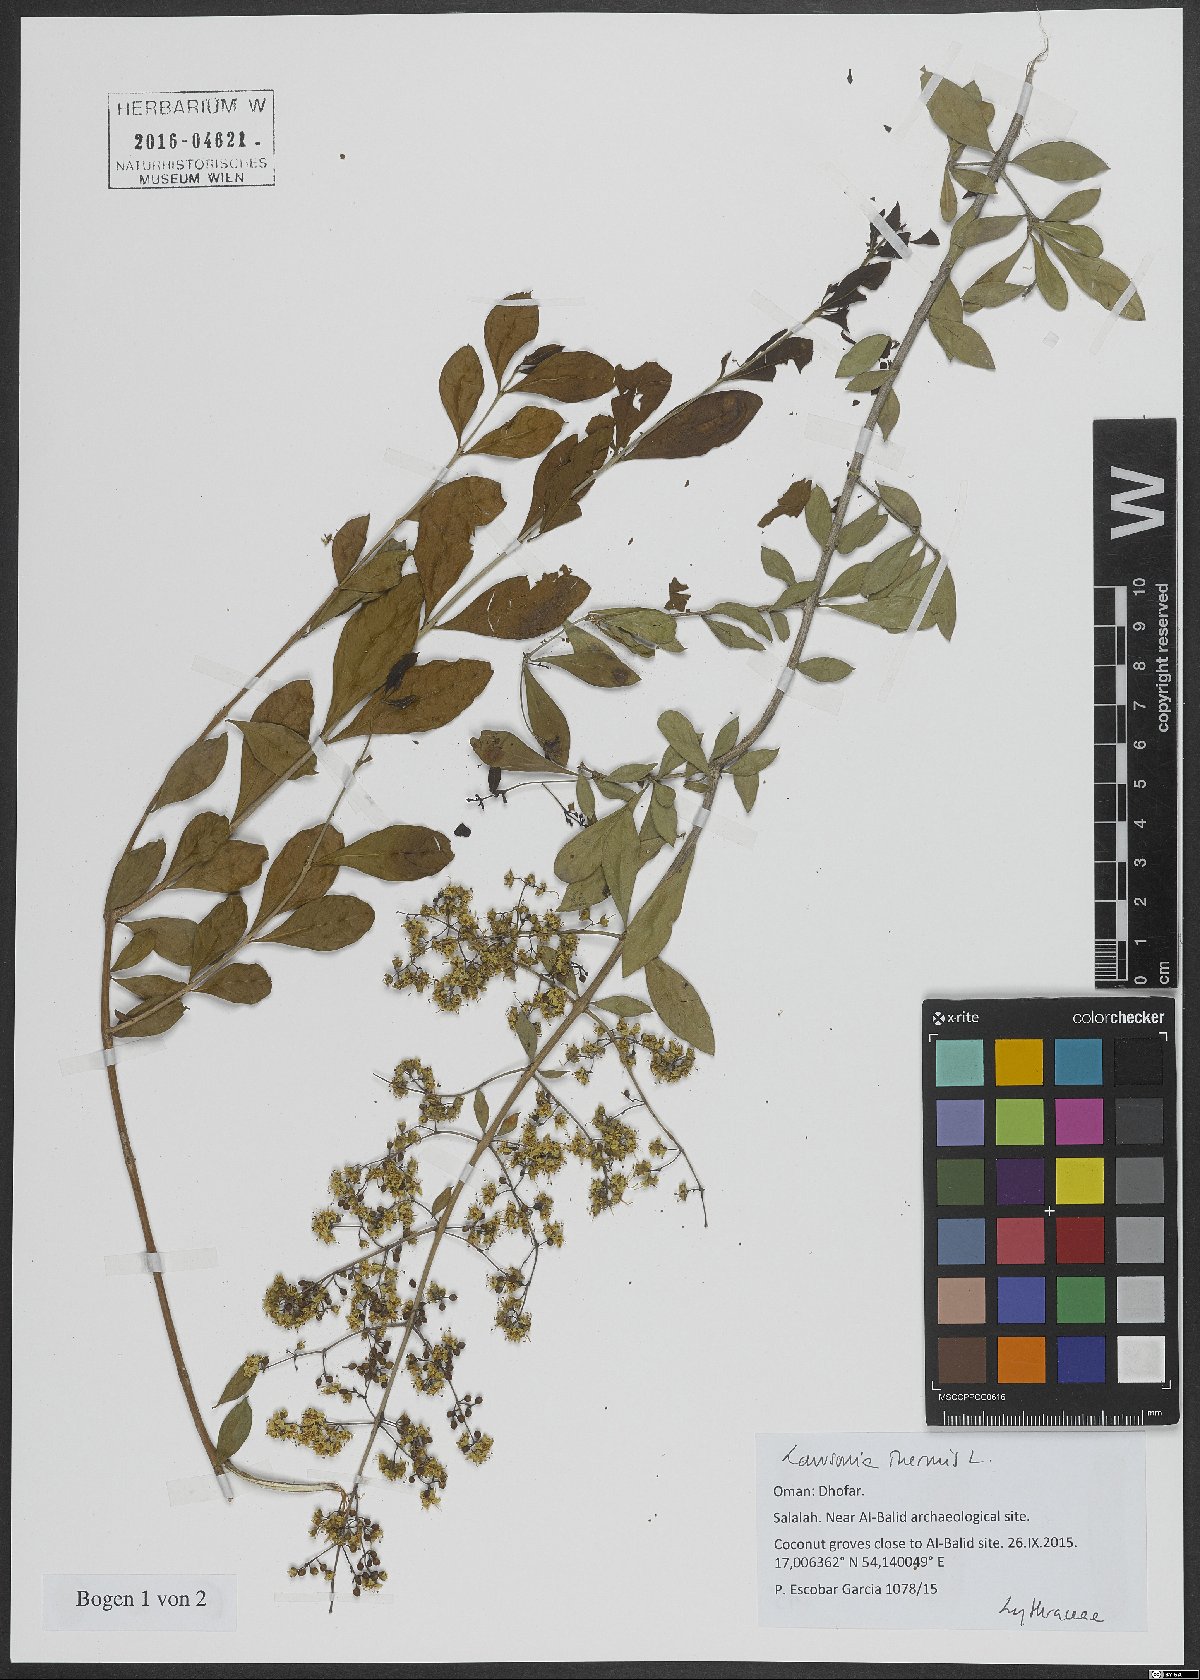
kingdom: Plantae
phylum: Tracheophyta
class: Magnoliopsida
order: Myrtales
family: Lythraceae
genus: Lawsonia
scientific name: Lawsonia inermis
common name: Henna
